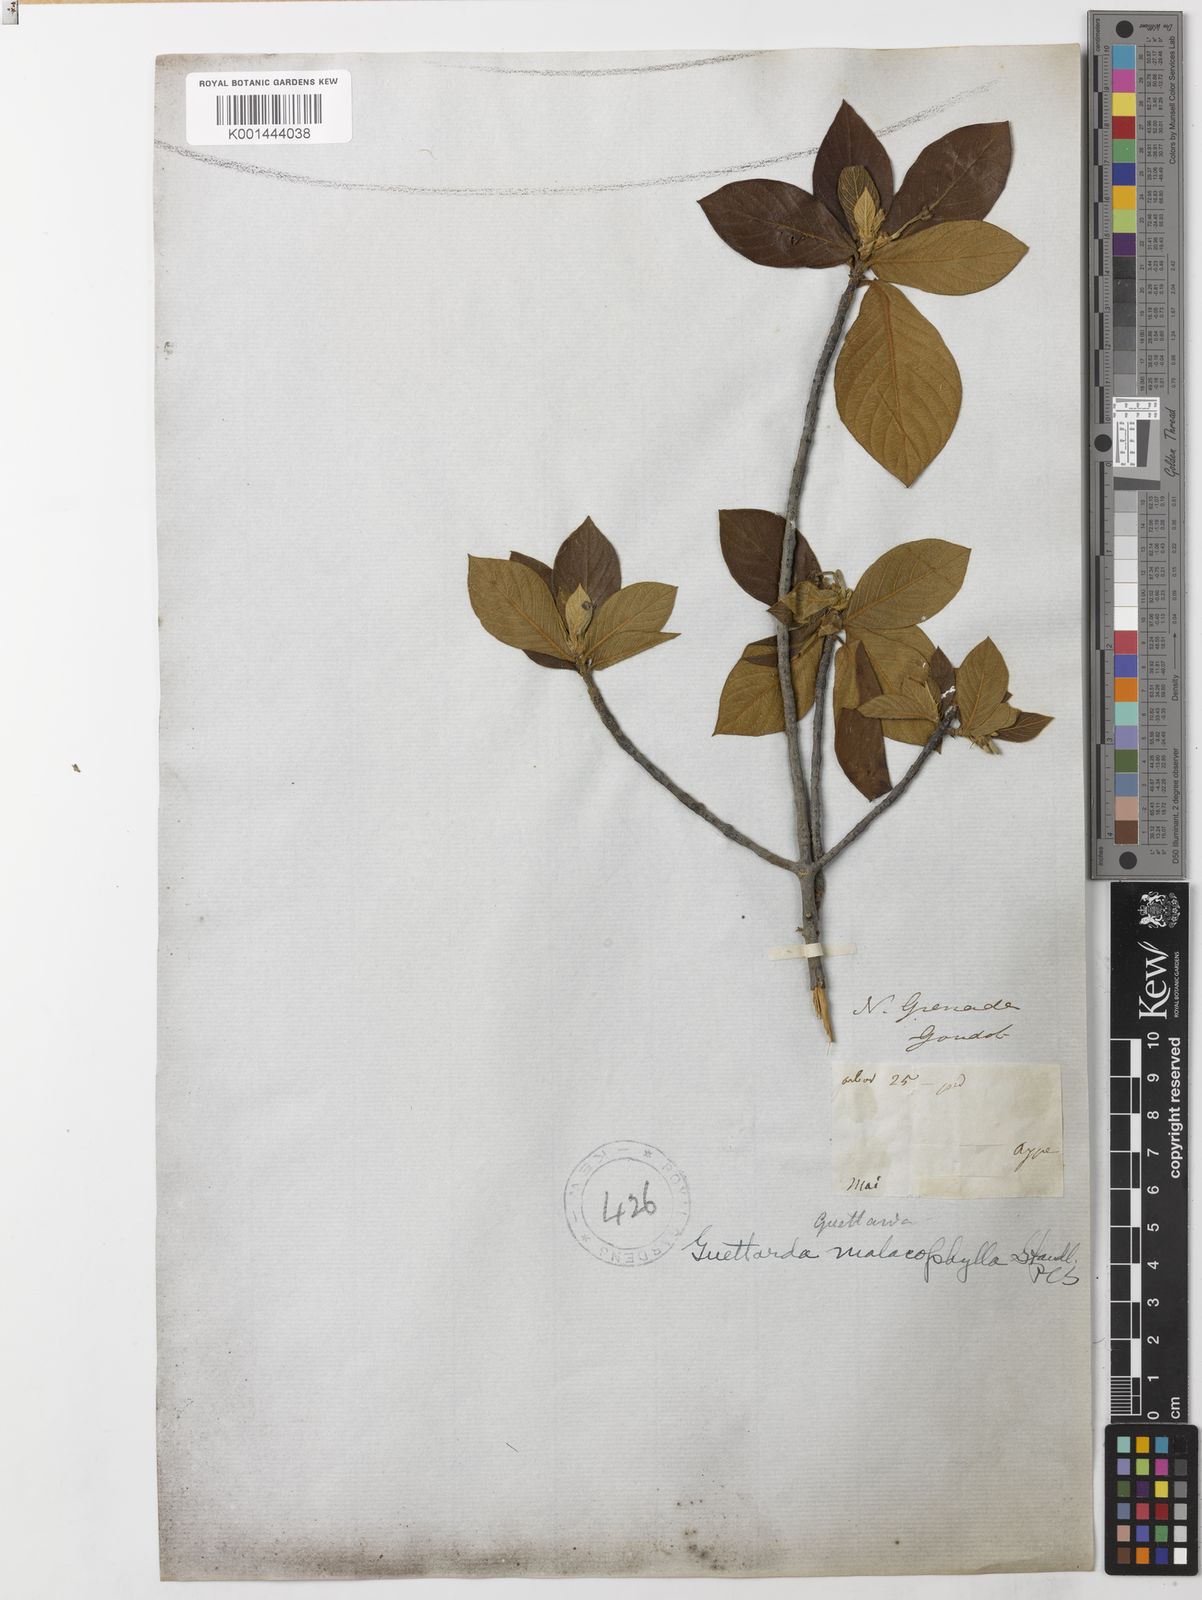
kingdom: Plantae
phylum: Tracheophyta
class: Magnoliopsida
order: Gentianales
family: Rubiaceae
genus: Guettarda
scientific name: Guettarda malacophylla
